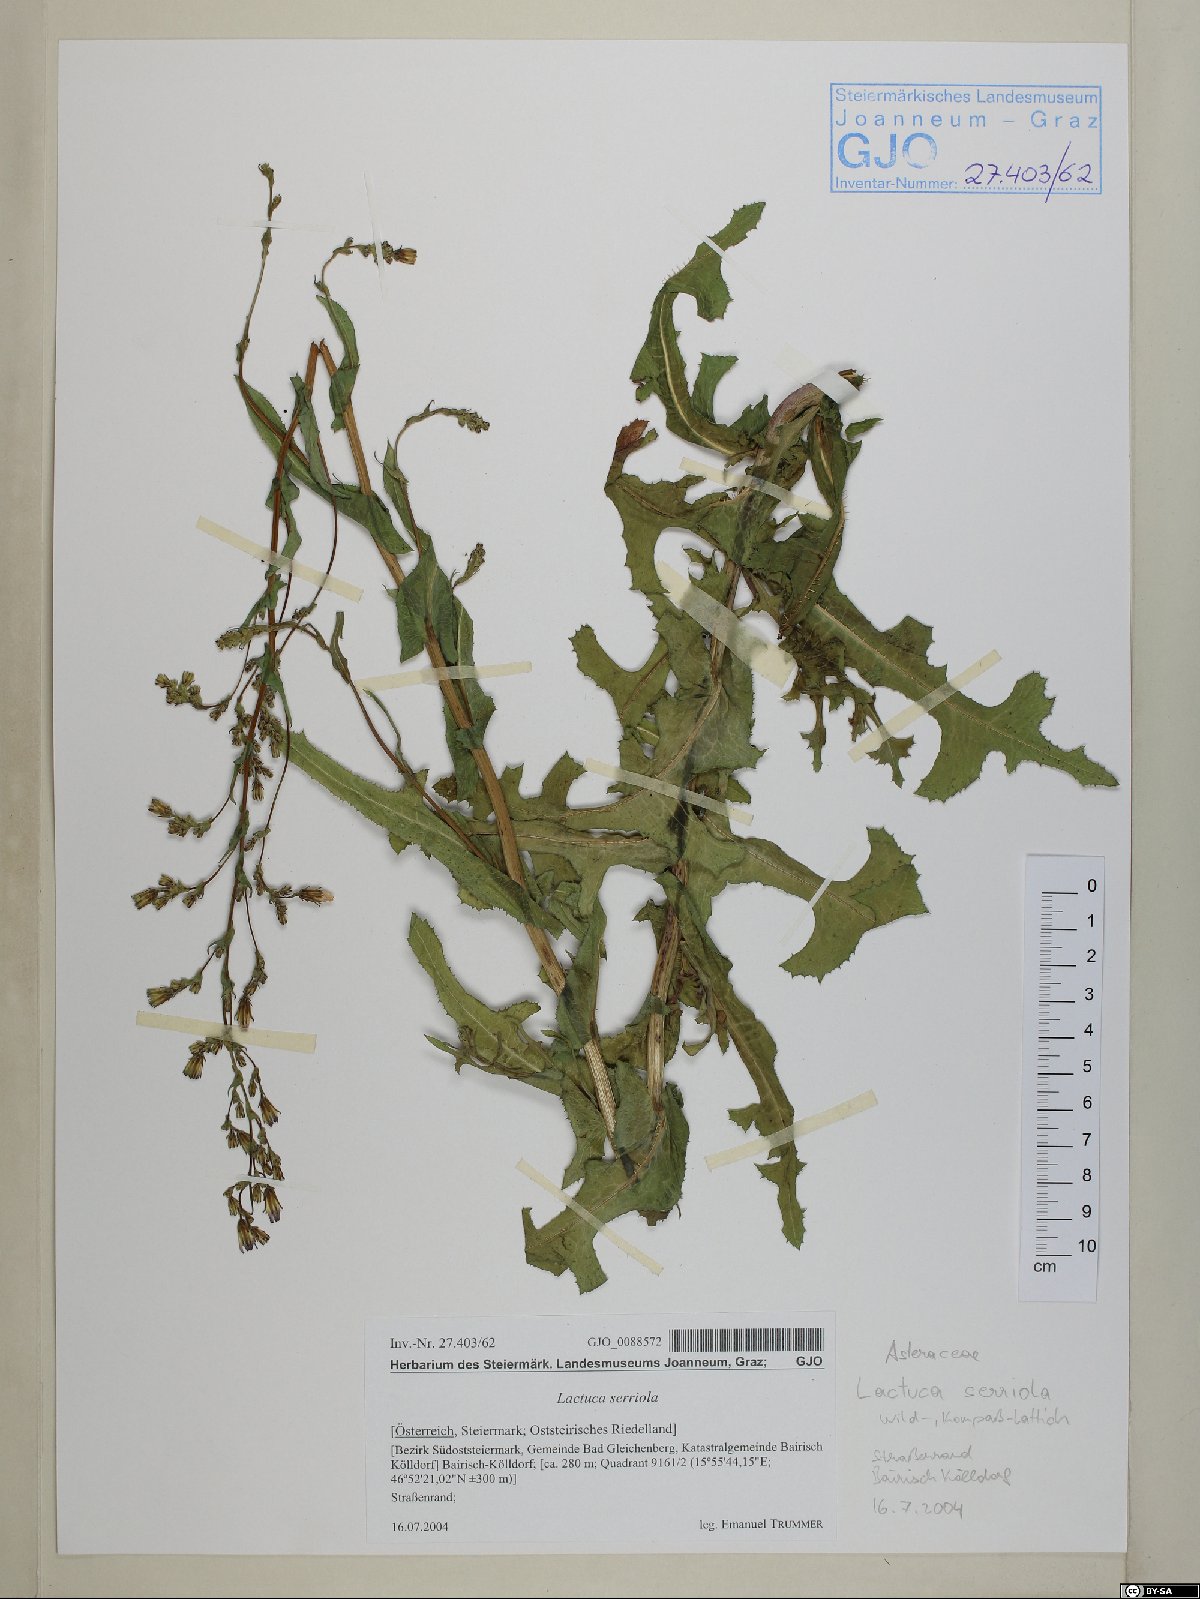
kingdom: Plantae
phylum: Tracheophyta
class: Magnoliopsida
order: Asterales
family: Asteraceae
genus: Lactuca
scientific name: Lactuca serriola
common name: Prickly lettuce
